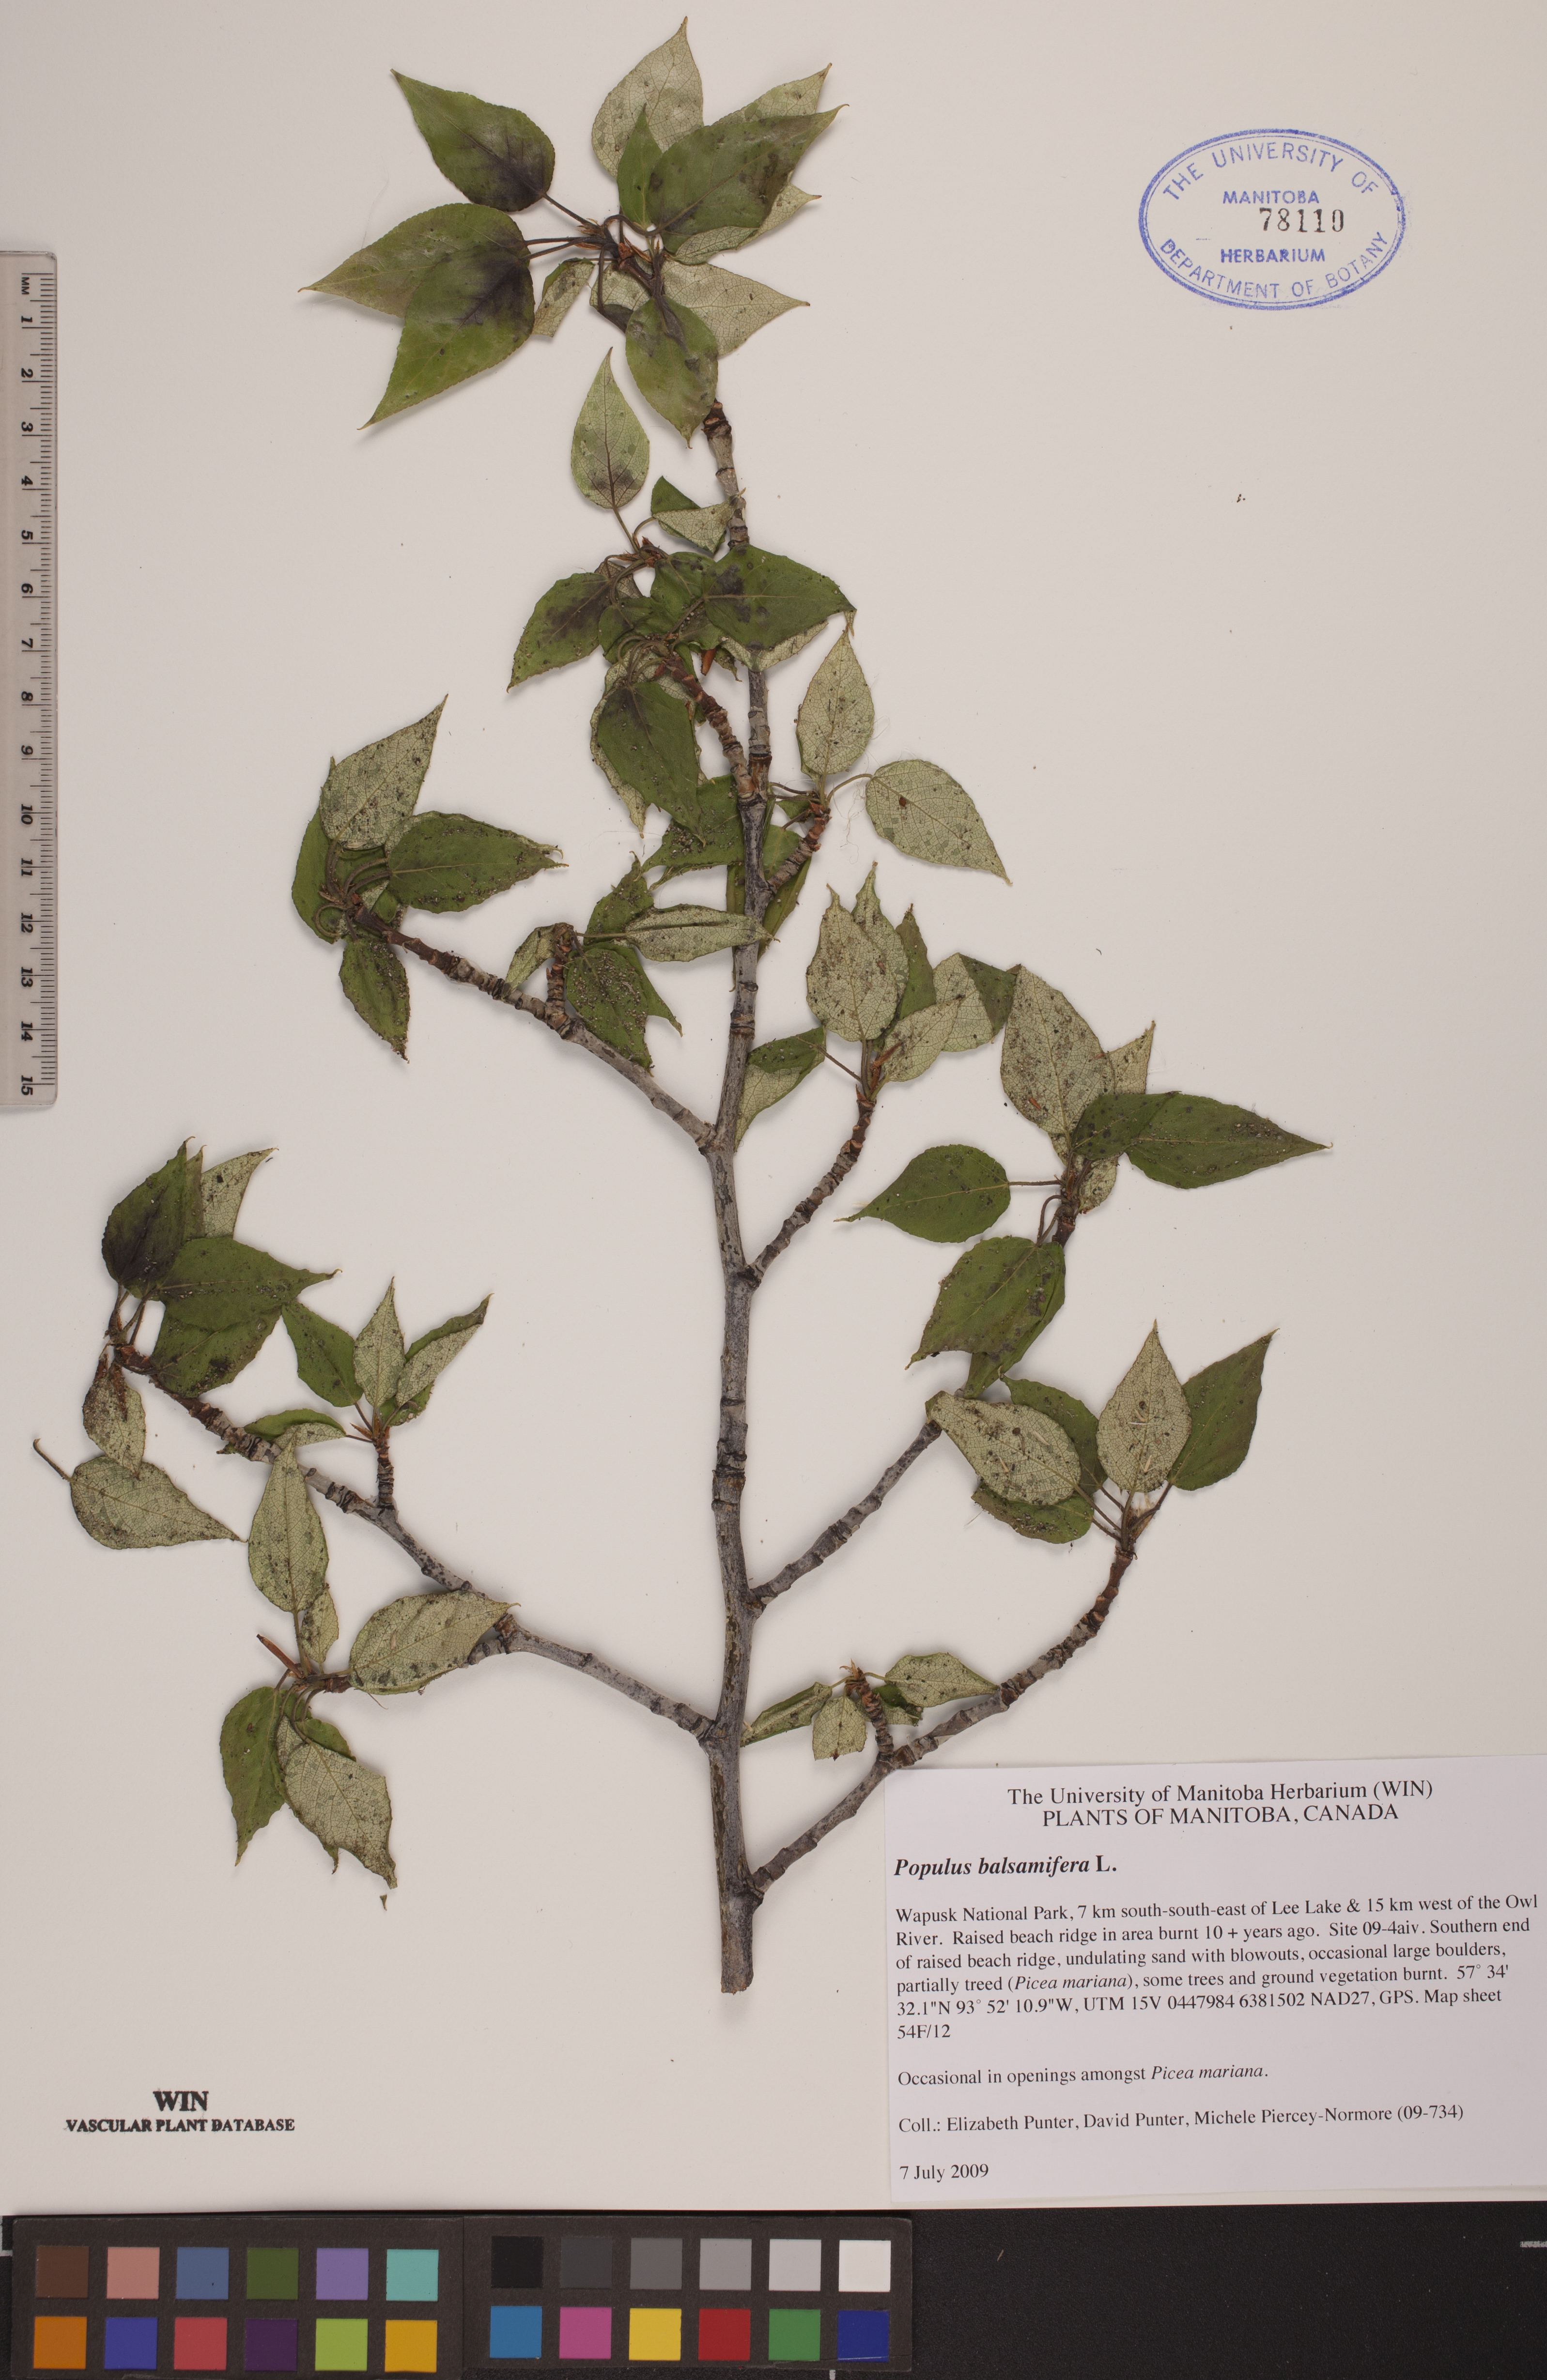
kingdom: Plantae
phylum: Tracheophyta
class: Magnoliopsida
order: Malpighiales
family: Salicaceae
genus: Populus
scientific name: Populus balsamifera
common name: Balsam poplar
